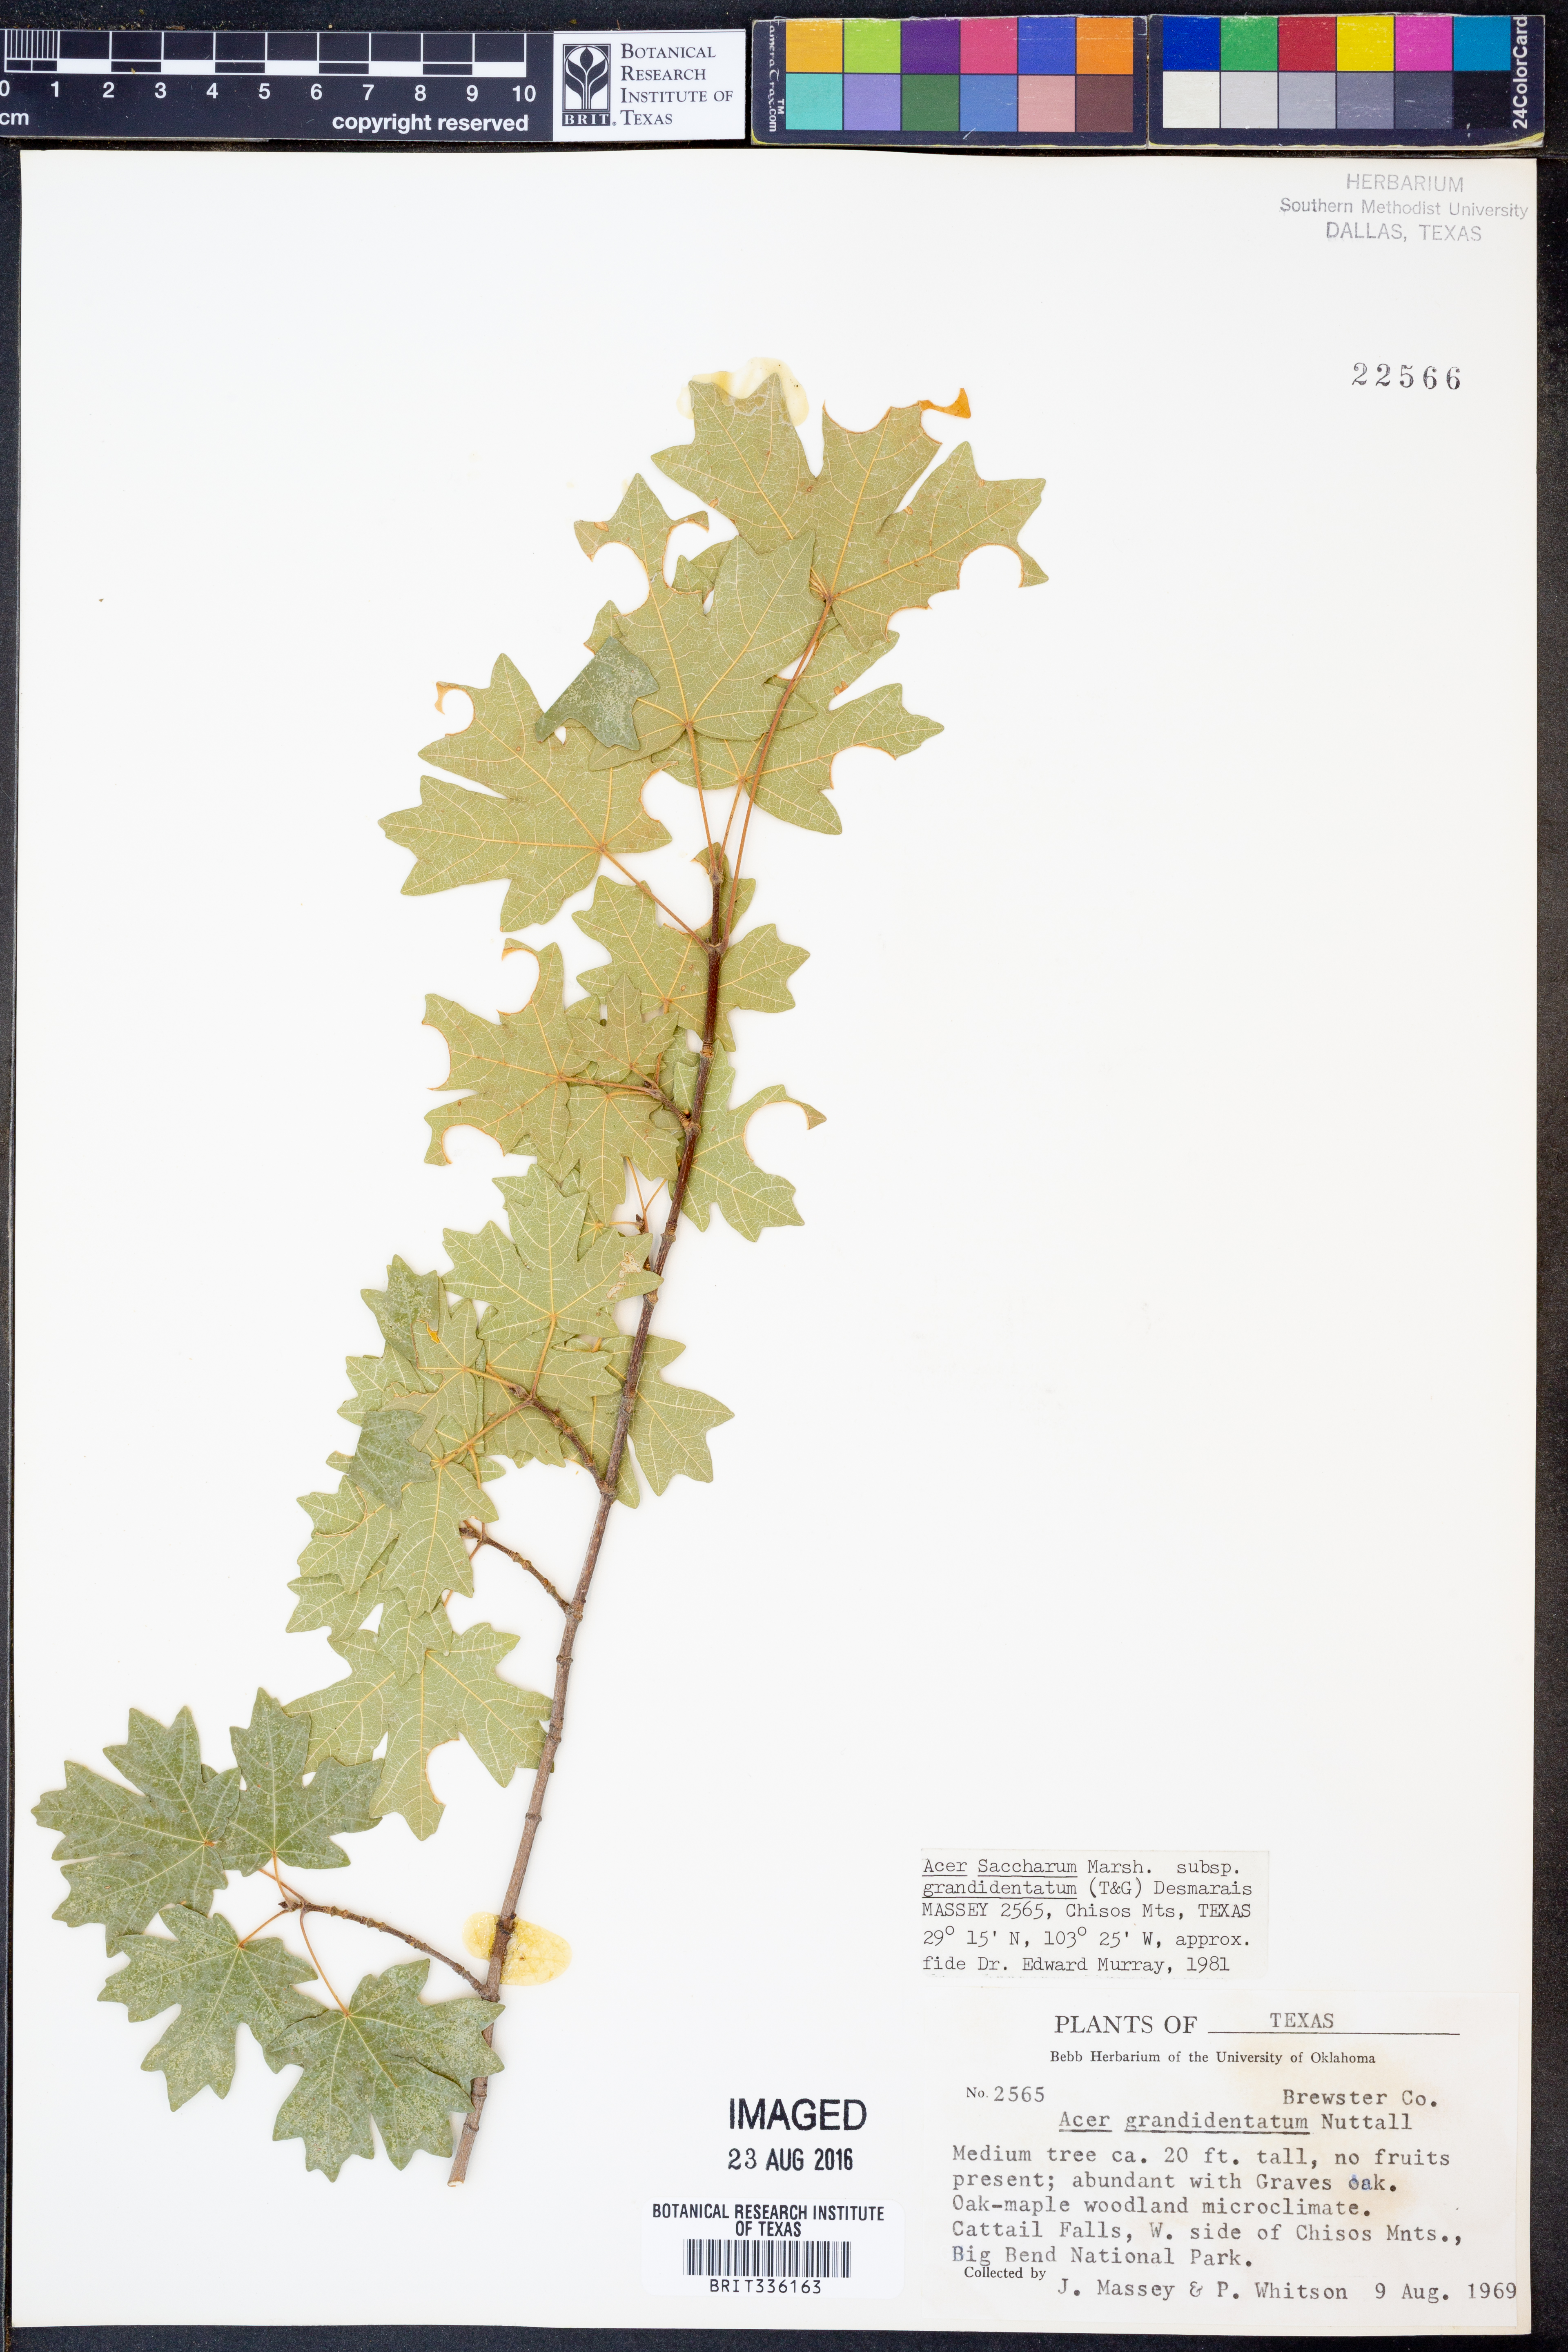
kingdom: Plantae
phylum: Tracheophyta
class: Magnoliopsida
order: Sapindales
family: Sapindaceae
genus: Acer
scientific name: Acer grandidentatum
